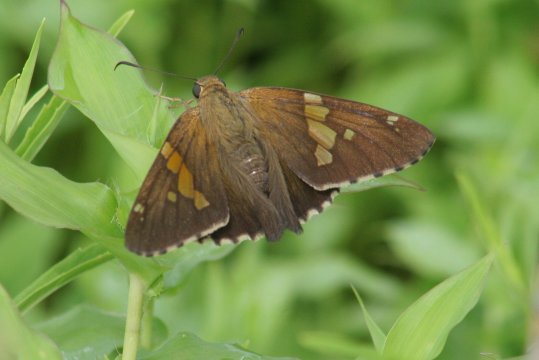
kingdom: Animalia
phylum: Arthropoda
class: Insecta
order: Lepidoptera
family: Hesperiidae
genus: Epargyreus
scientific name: Epargyreus clarus
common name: Silver-spotted Skipper
